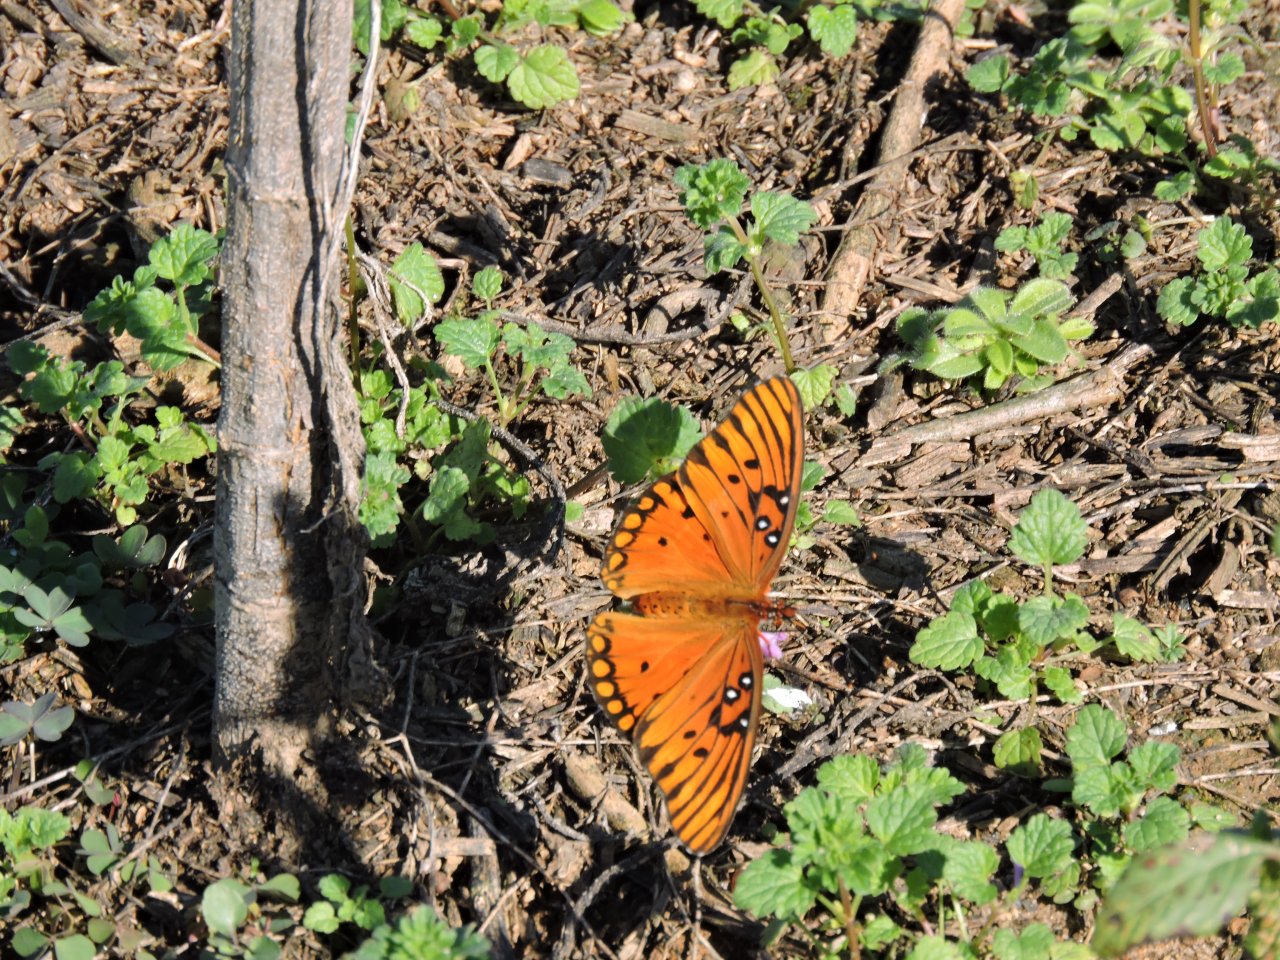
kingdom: Animalia
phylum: Arthropoda
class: Insecta
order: Lepidoptera
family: Nymphalidae
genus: Dione
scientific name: Dione vanillae
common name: Gulf Fritillary
